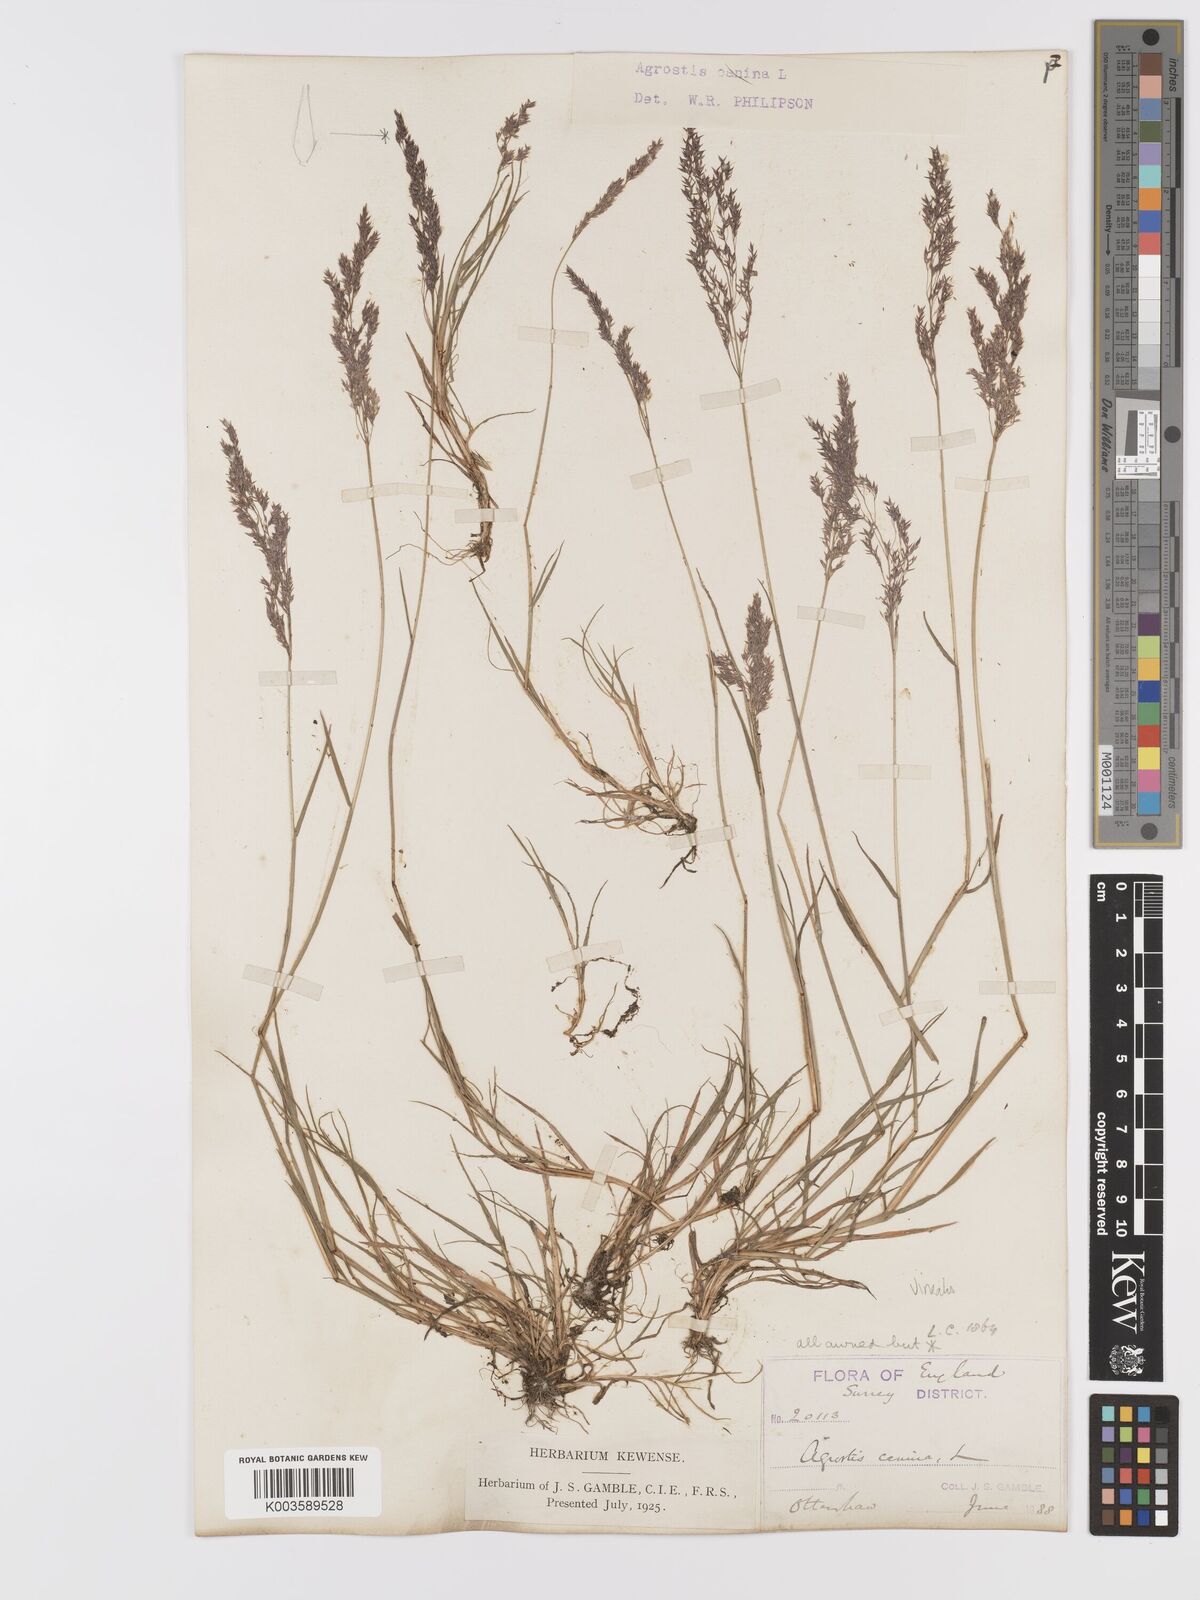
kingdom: Plantae
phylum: Tracheophyta
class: Liliopsida
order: Poales
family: Poaceae
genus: Agrostis
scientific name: Agrostis
